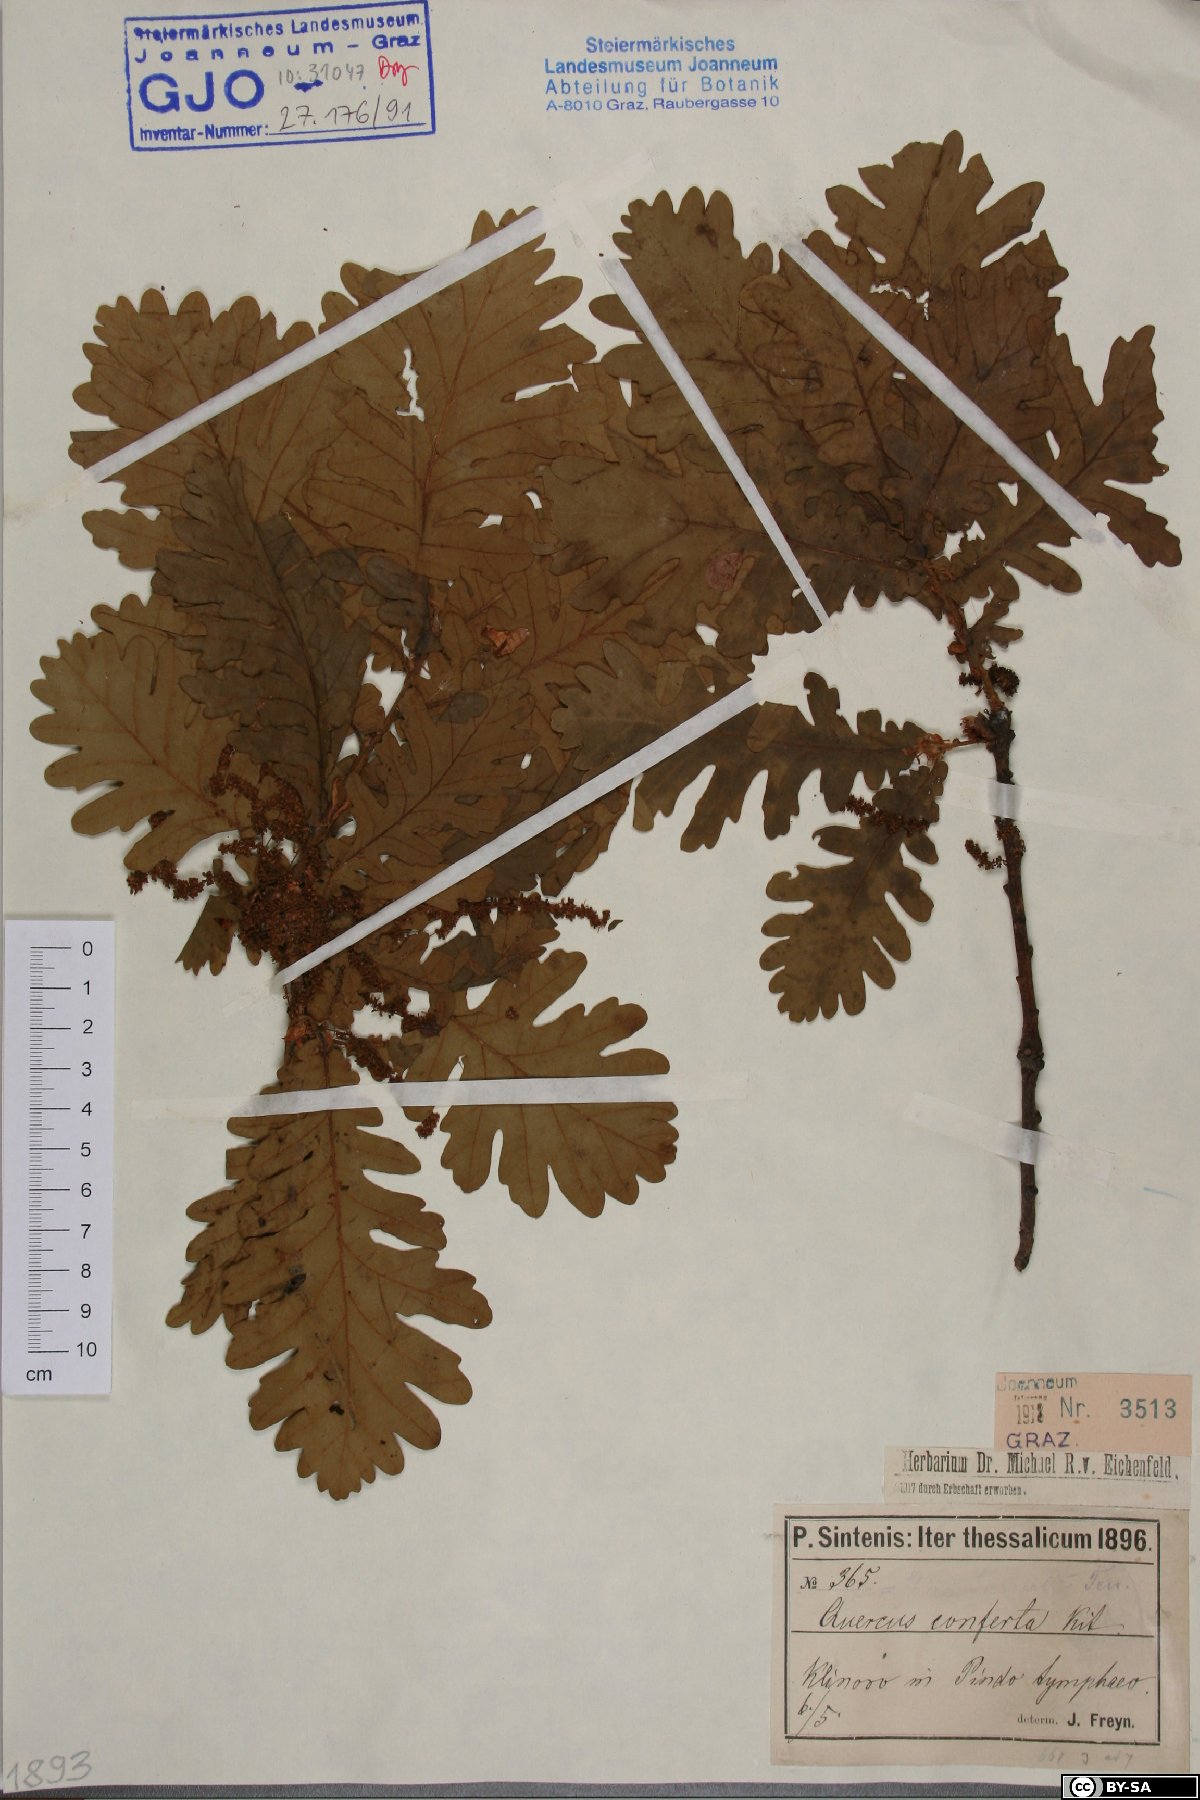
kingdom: Plantae
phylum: Tracheophyta
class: Magnoliopsida
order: Fagales
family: Fagaceae
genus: Quercus
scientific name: Quercus conferta
